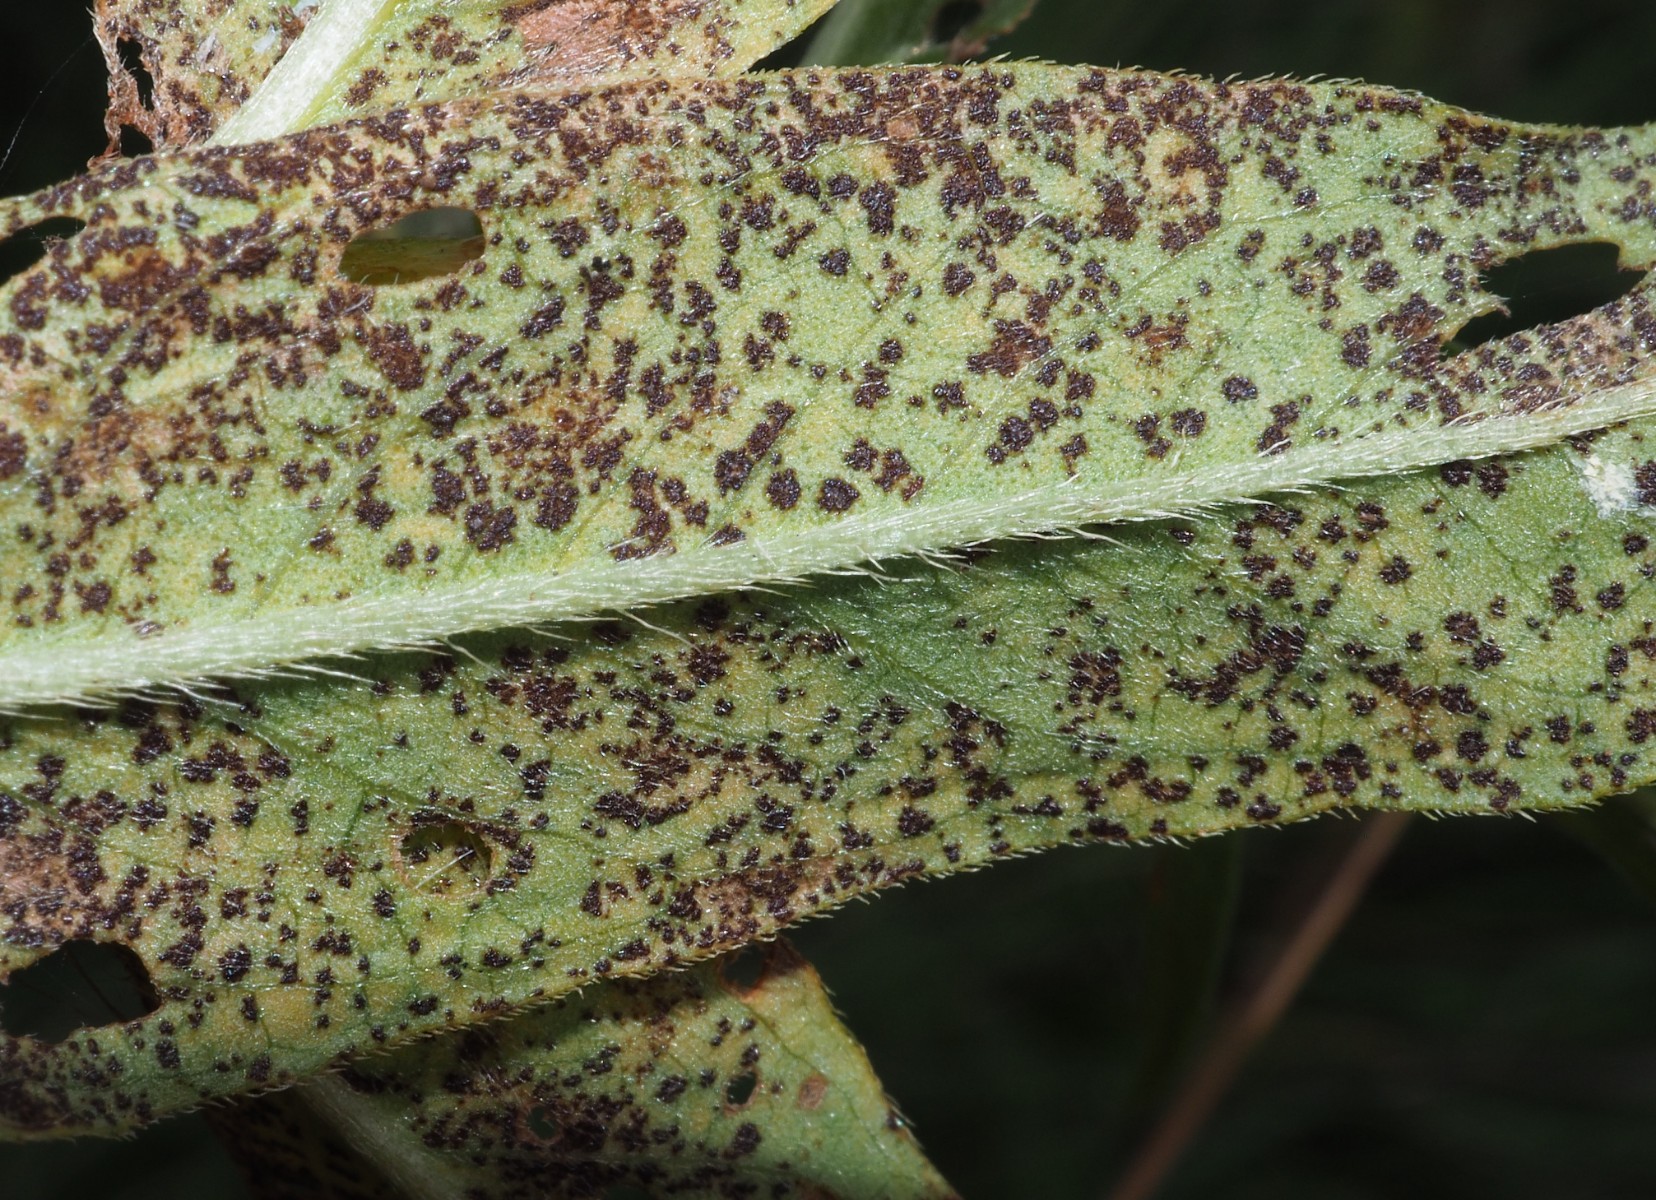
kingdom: Fungi
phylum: Basidiomycota
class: Pucciniomycetes
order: Pucciniales
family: Pucciniaceae
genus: Puccinia
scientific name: Puccinia polygoni-amphibii
